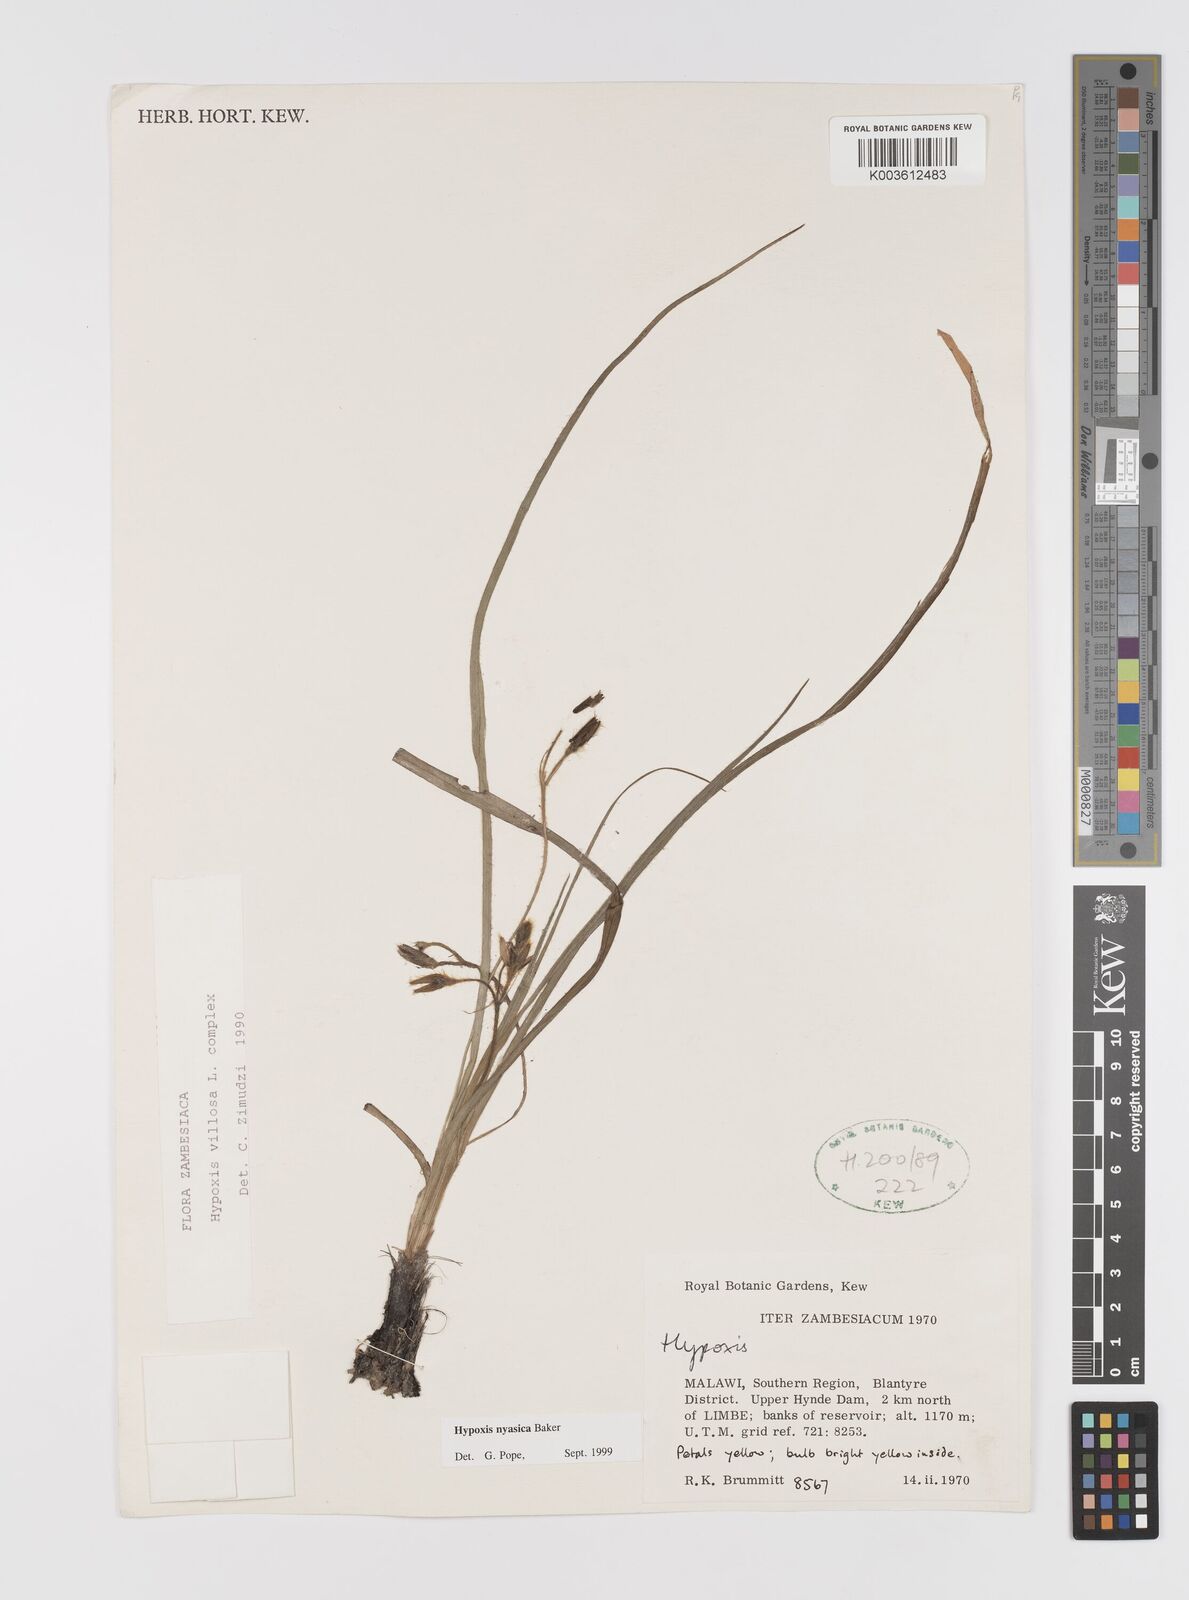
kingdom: Plantae
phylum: Tracheophyta
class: Liliopsida
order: Asparagales
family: Hypoxidaceae
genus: Hypoxis
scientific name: Hypoxis nyasica
